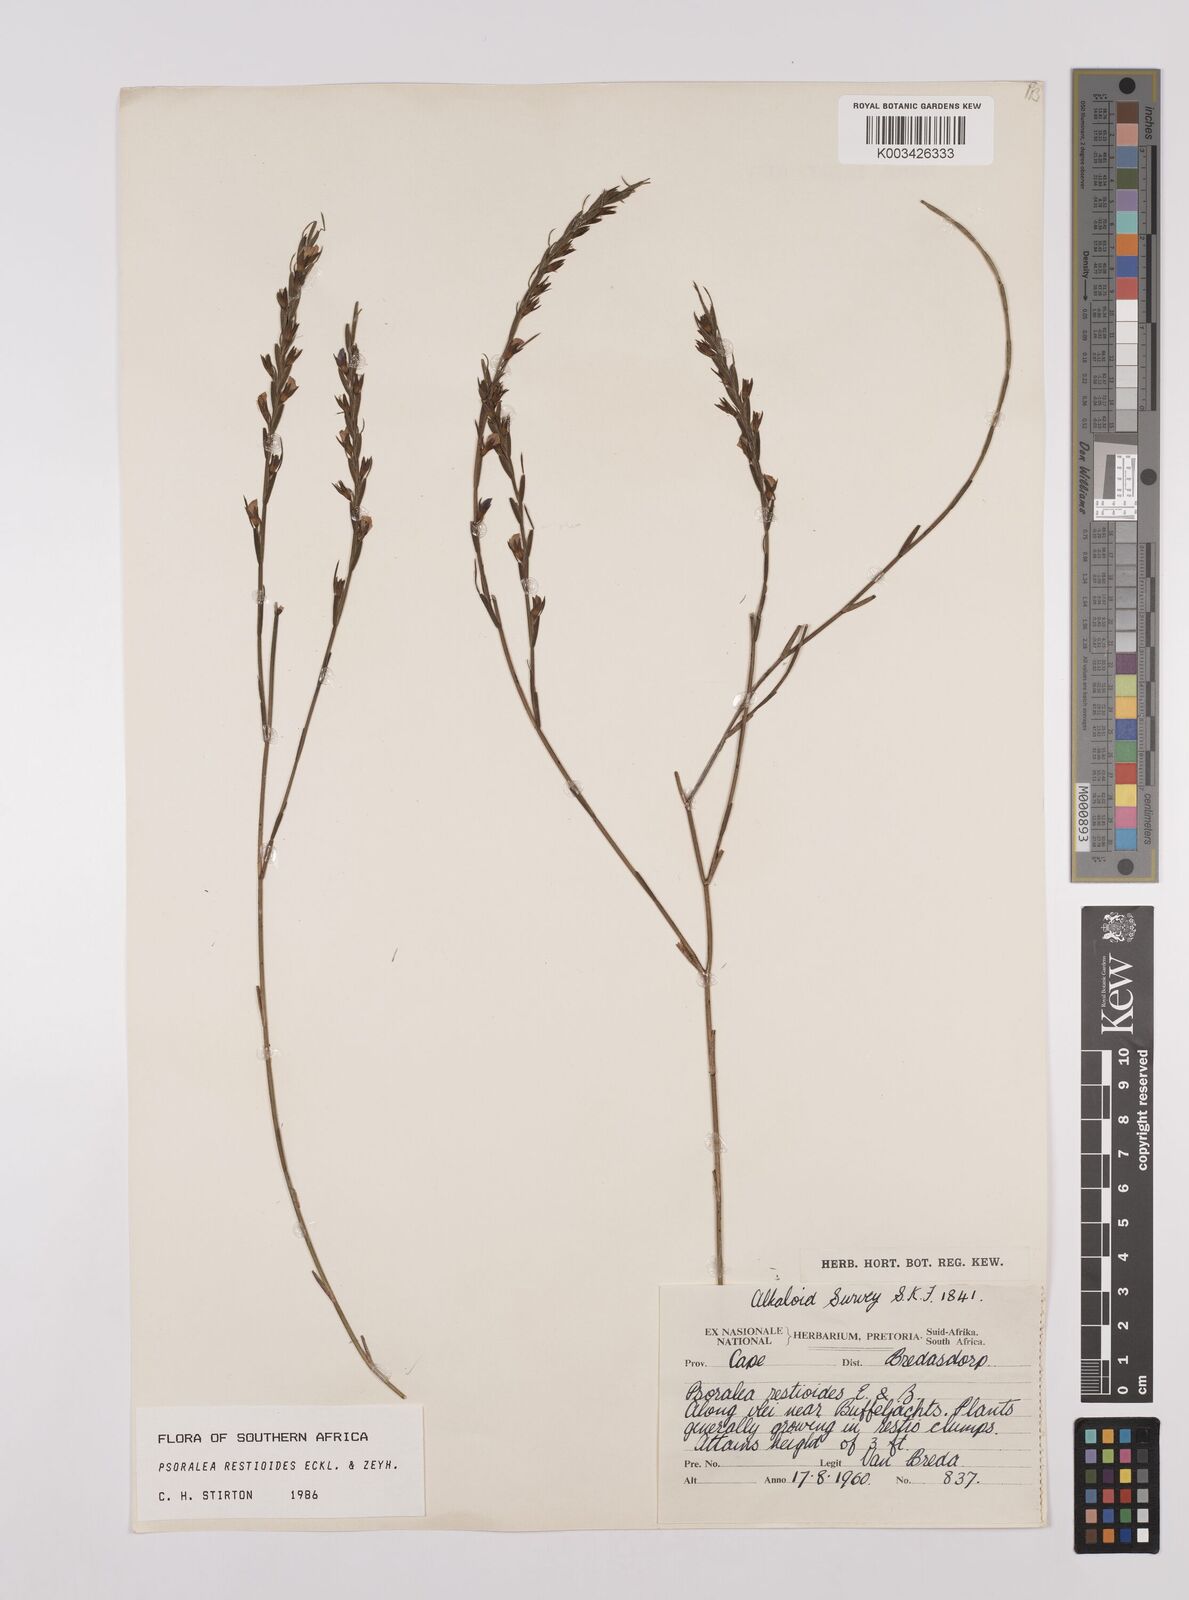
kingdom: Plantae
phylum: Tracheophyta
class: Magnoliopsida
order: Fabales
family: Fabaceae
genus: Psoralea
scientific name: Psoralea restioides
